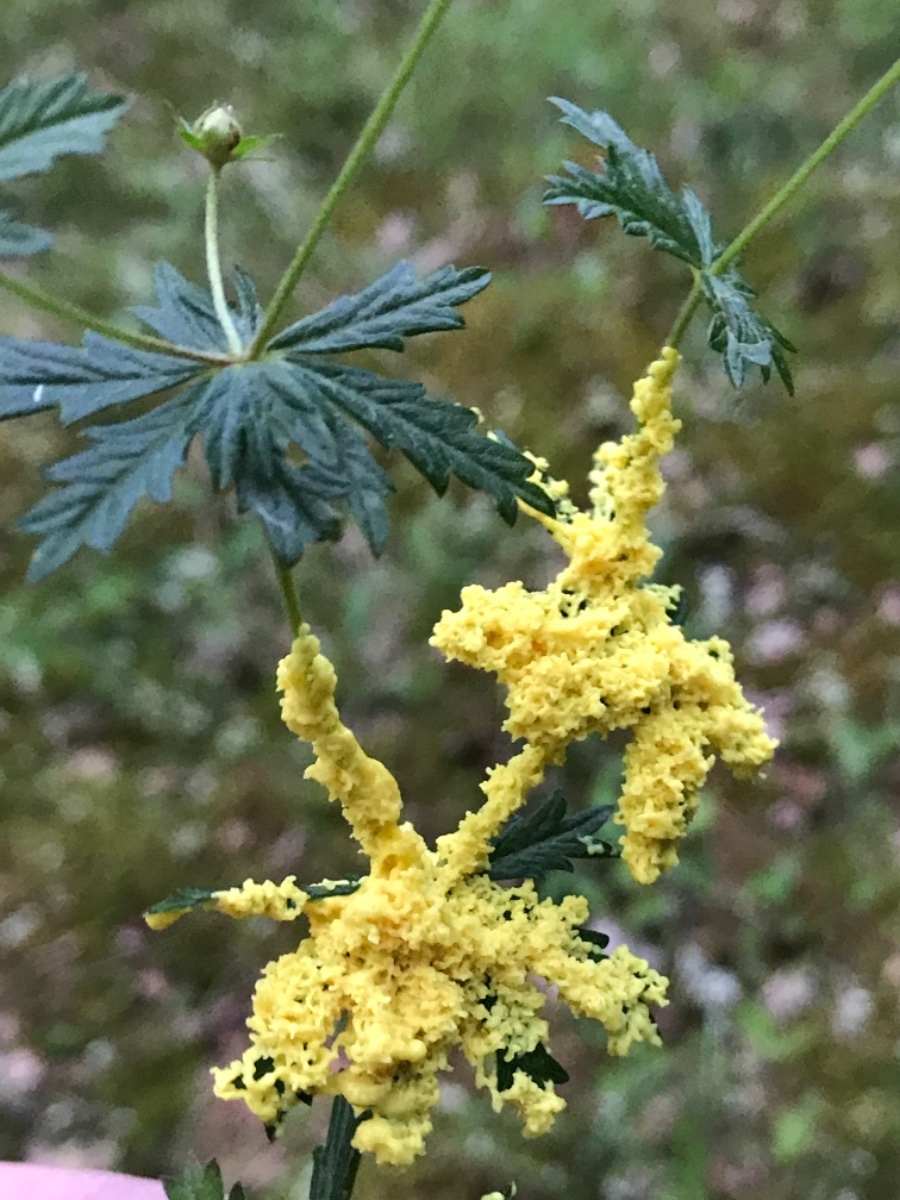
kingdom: Protozoa
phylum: Mycetozoa
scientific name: Mycetozoa
